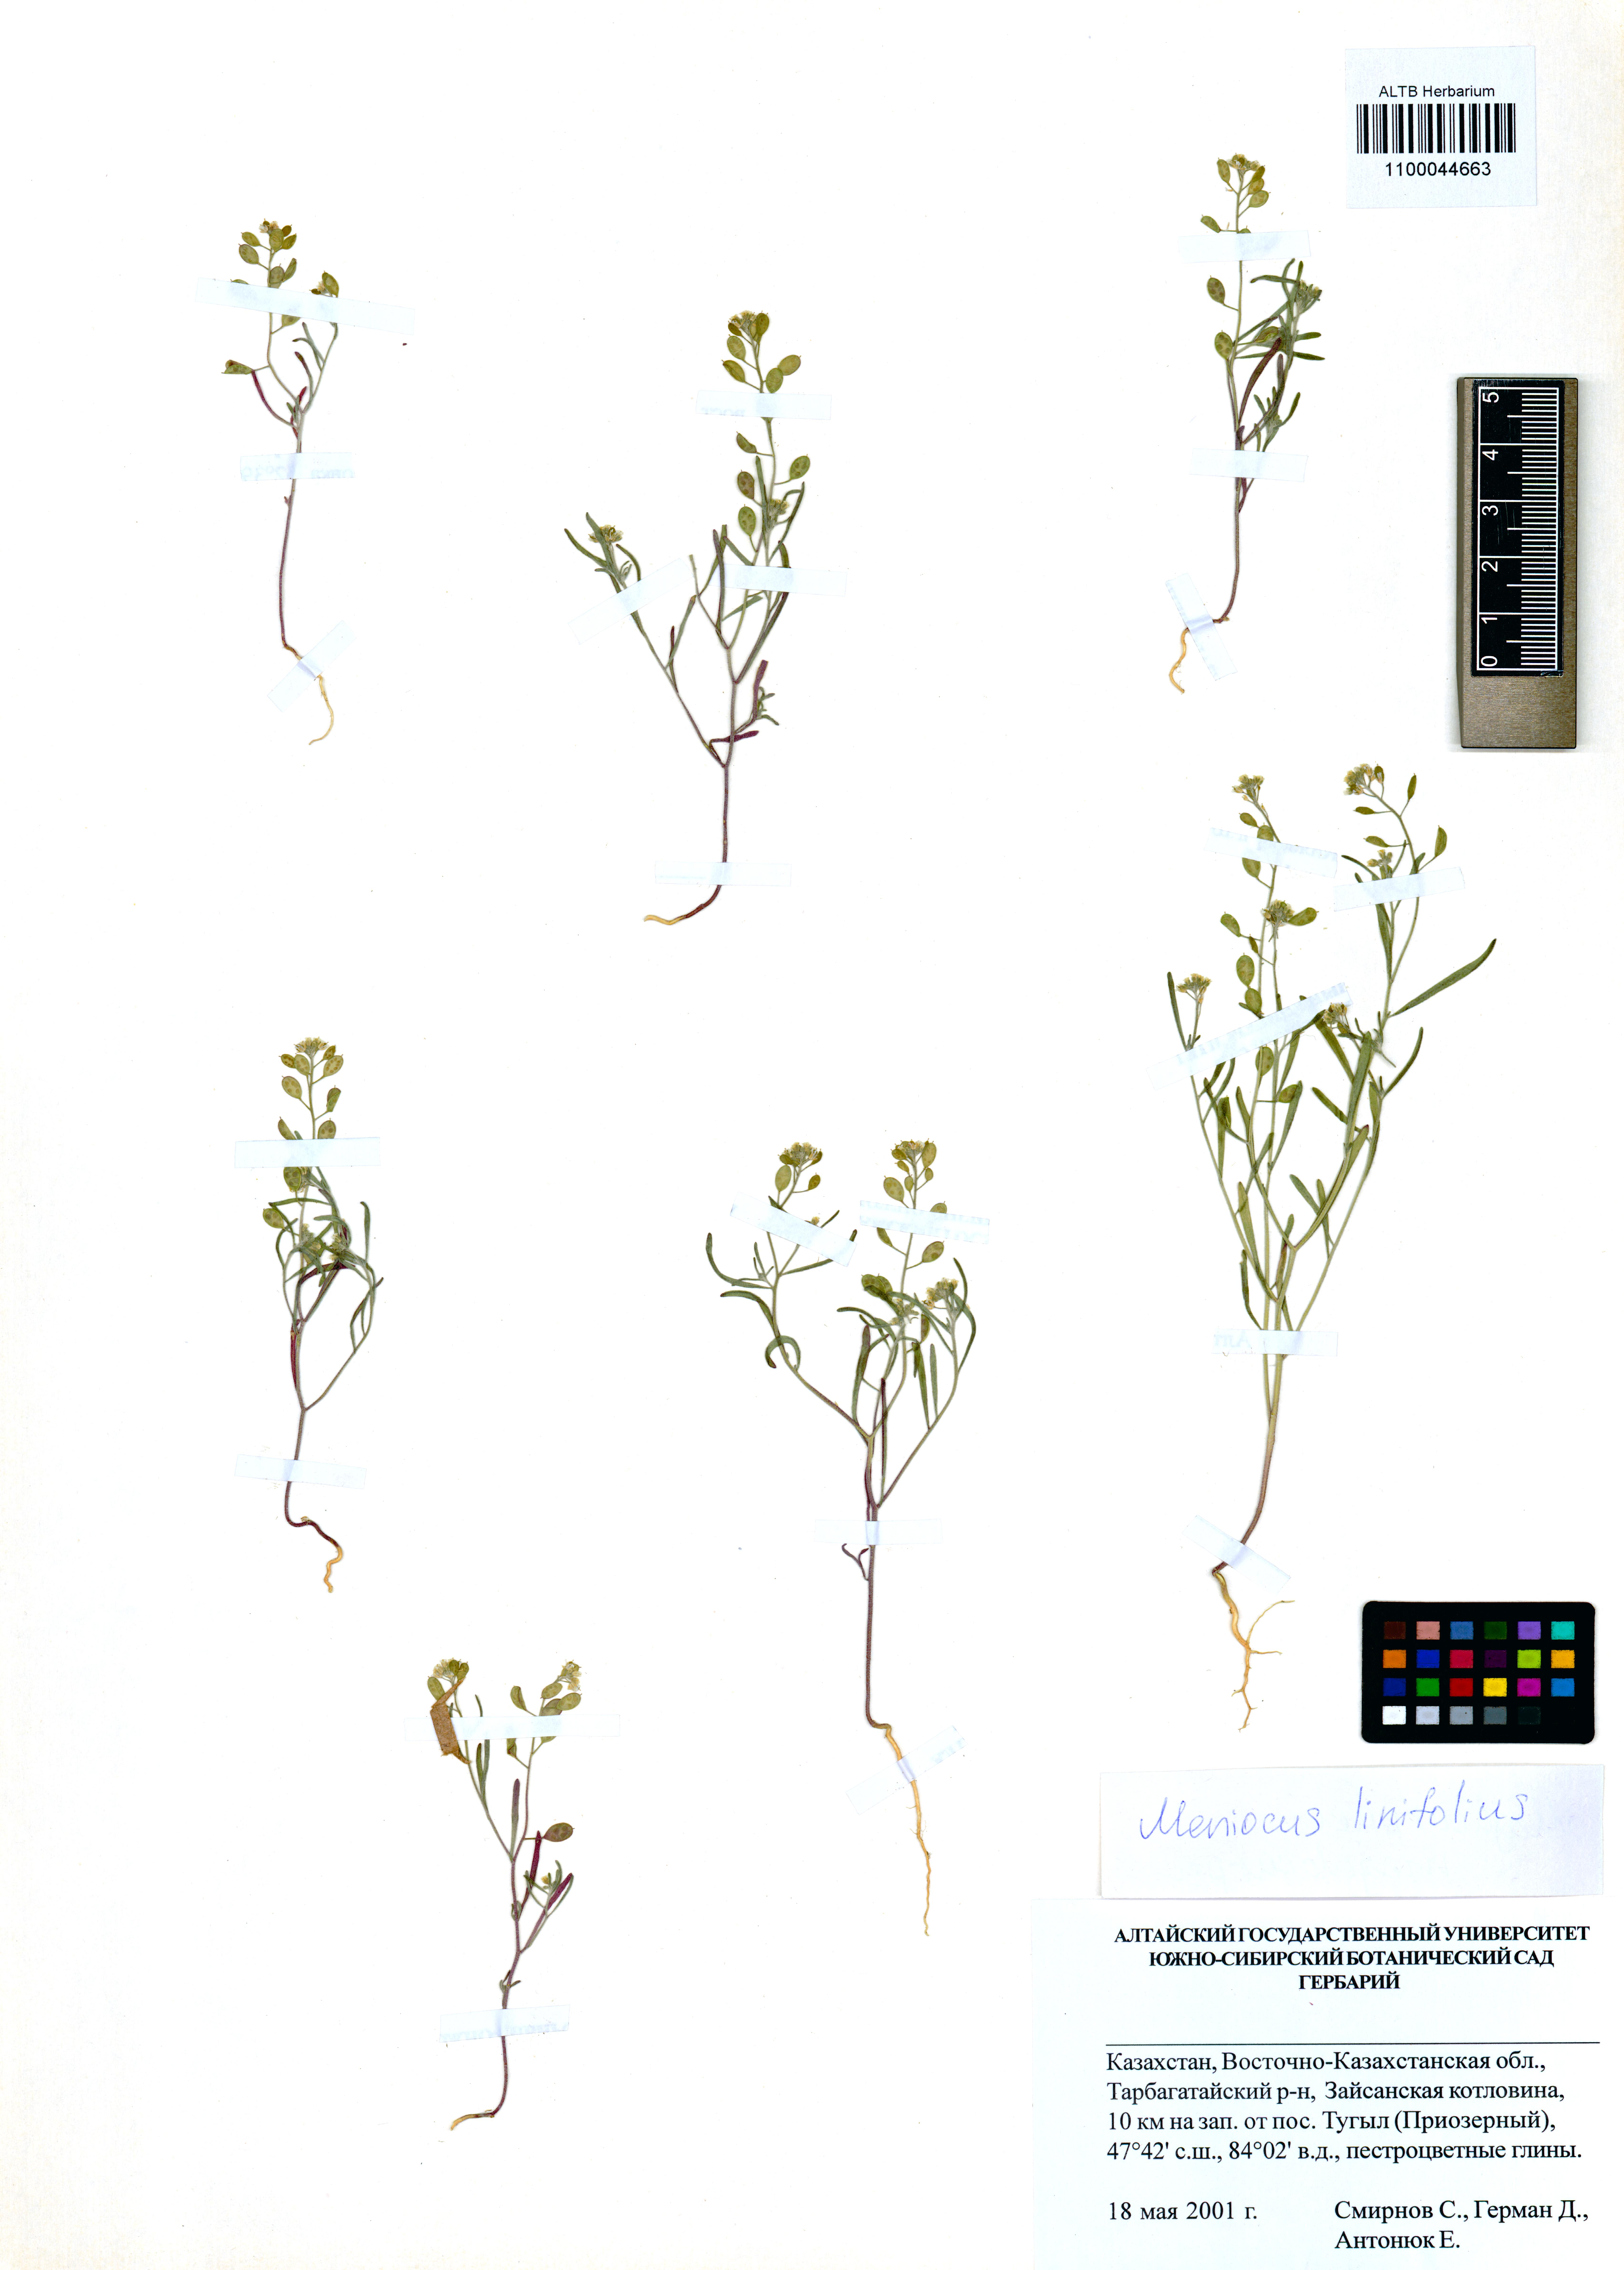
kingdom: Plantae
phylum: Tracheophyta
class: Magnoliopsida
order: Brassicales
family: Brassicaceae
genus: Meniocus
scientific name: Meniocus linifolius
